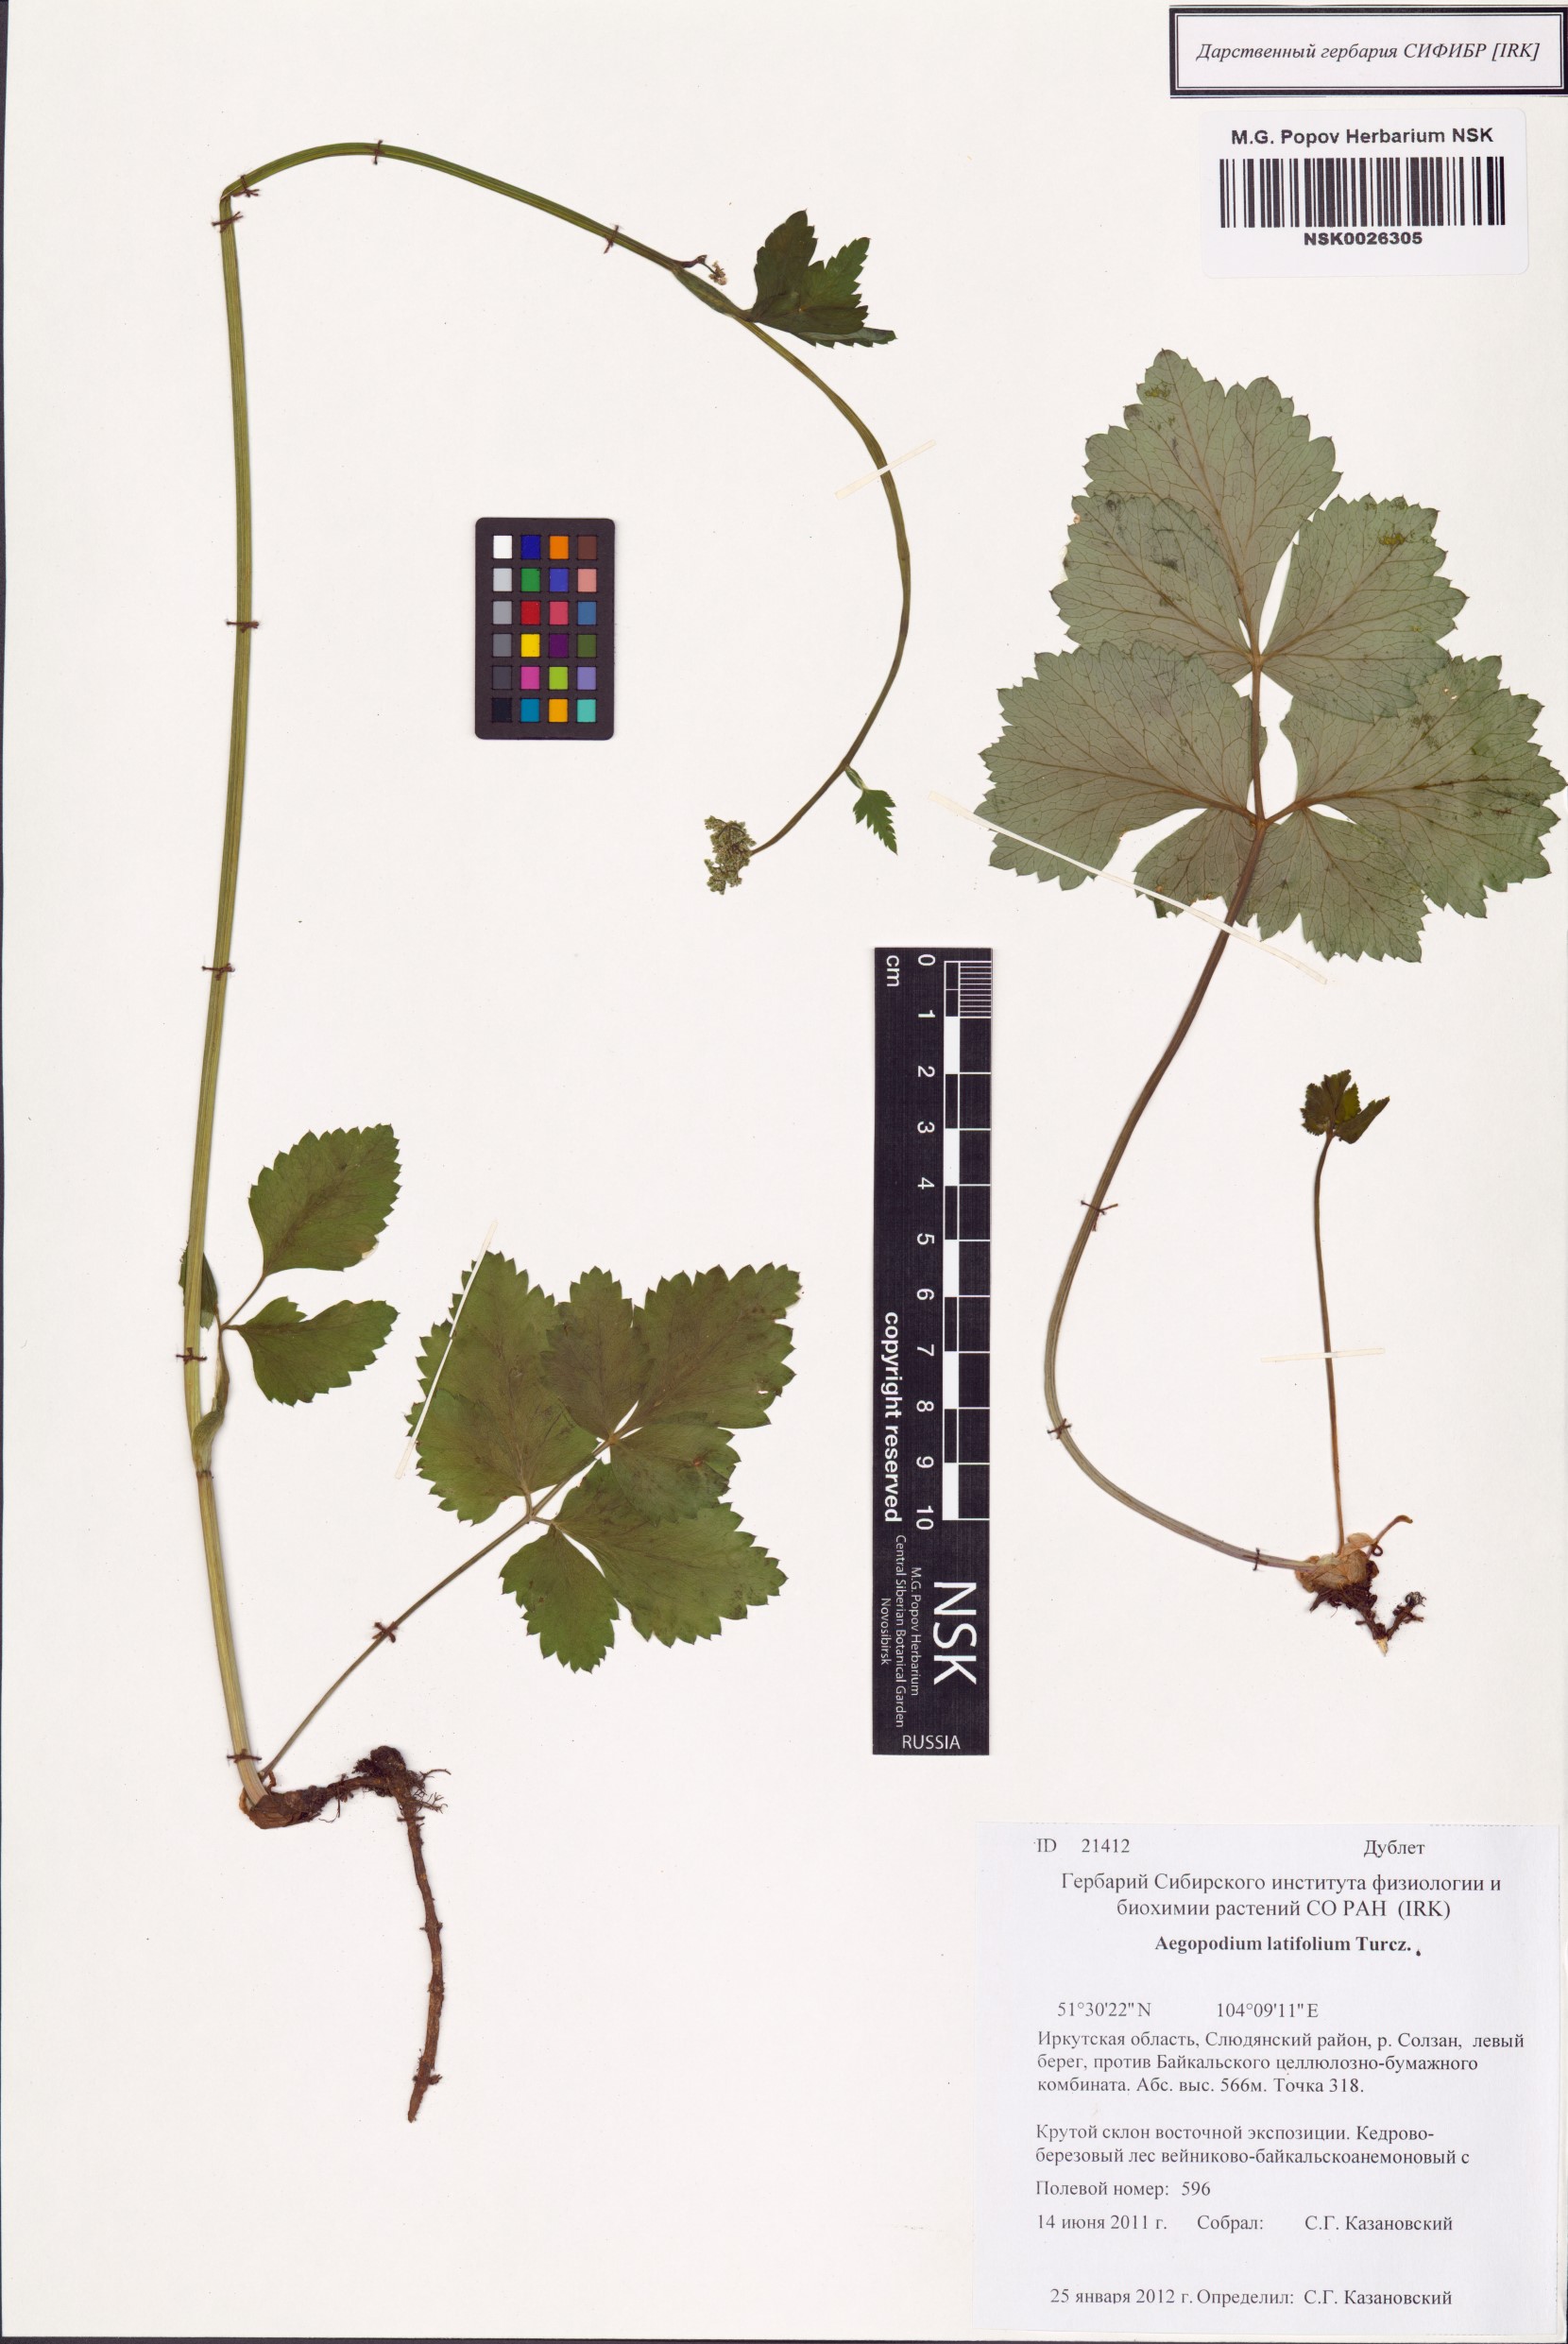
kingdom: Plantae
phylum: Tracheophyta
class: Magnoliopsida
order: Apiales
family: Apiaceae
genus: Aegopodium
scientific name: Aegopodium latifolium
